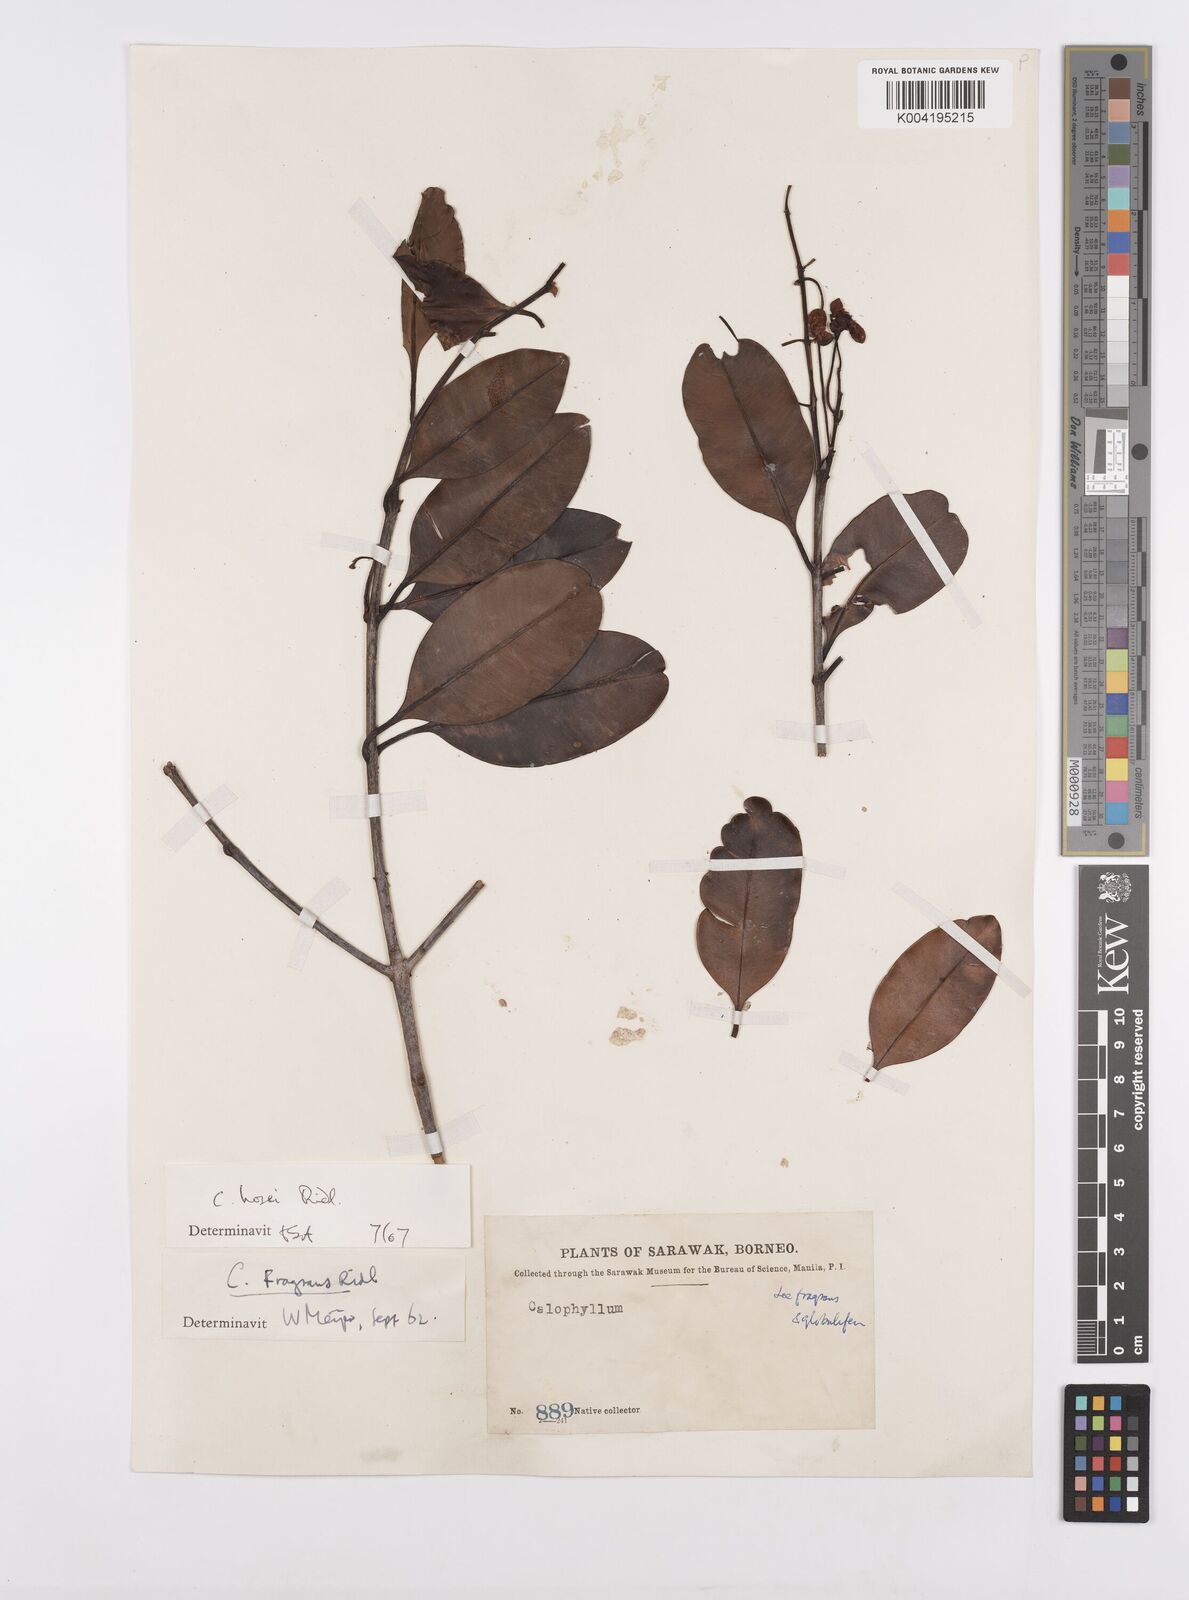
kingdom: Plantae
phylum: Tracheophyta
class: Magnoliopsida
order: Malpighiales
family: Calophyllaceae
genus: Calophyllum
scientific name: Calophyllum hosei
